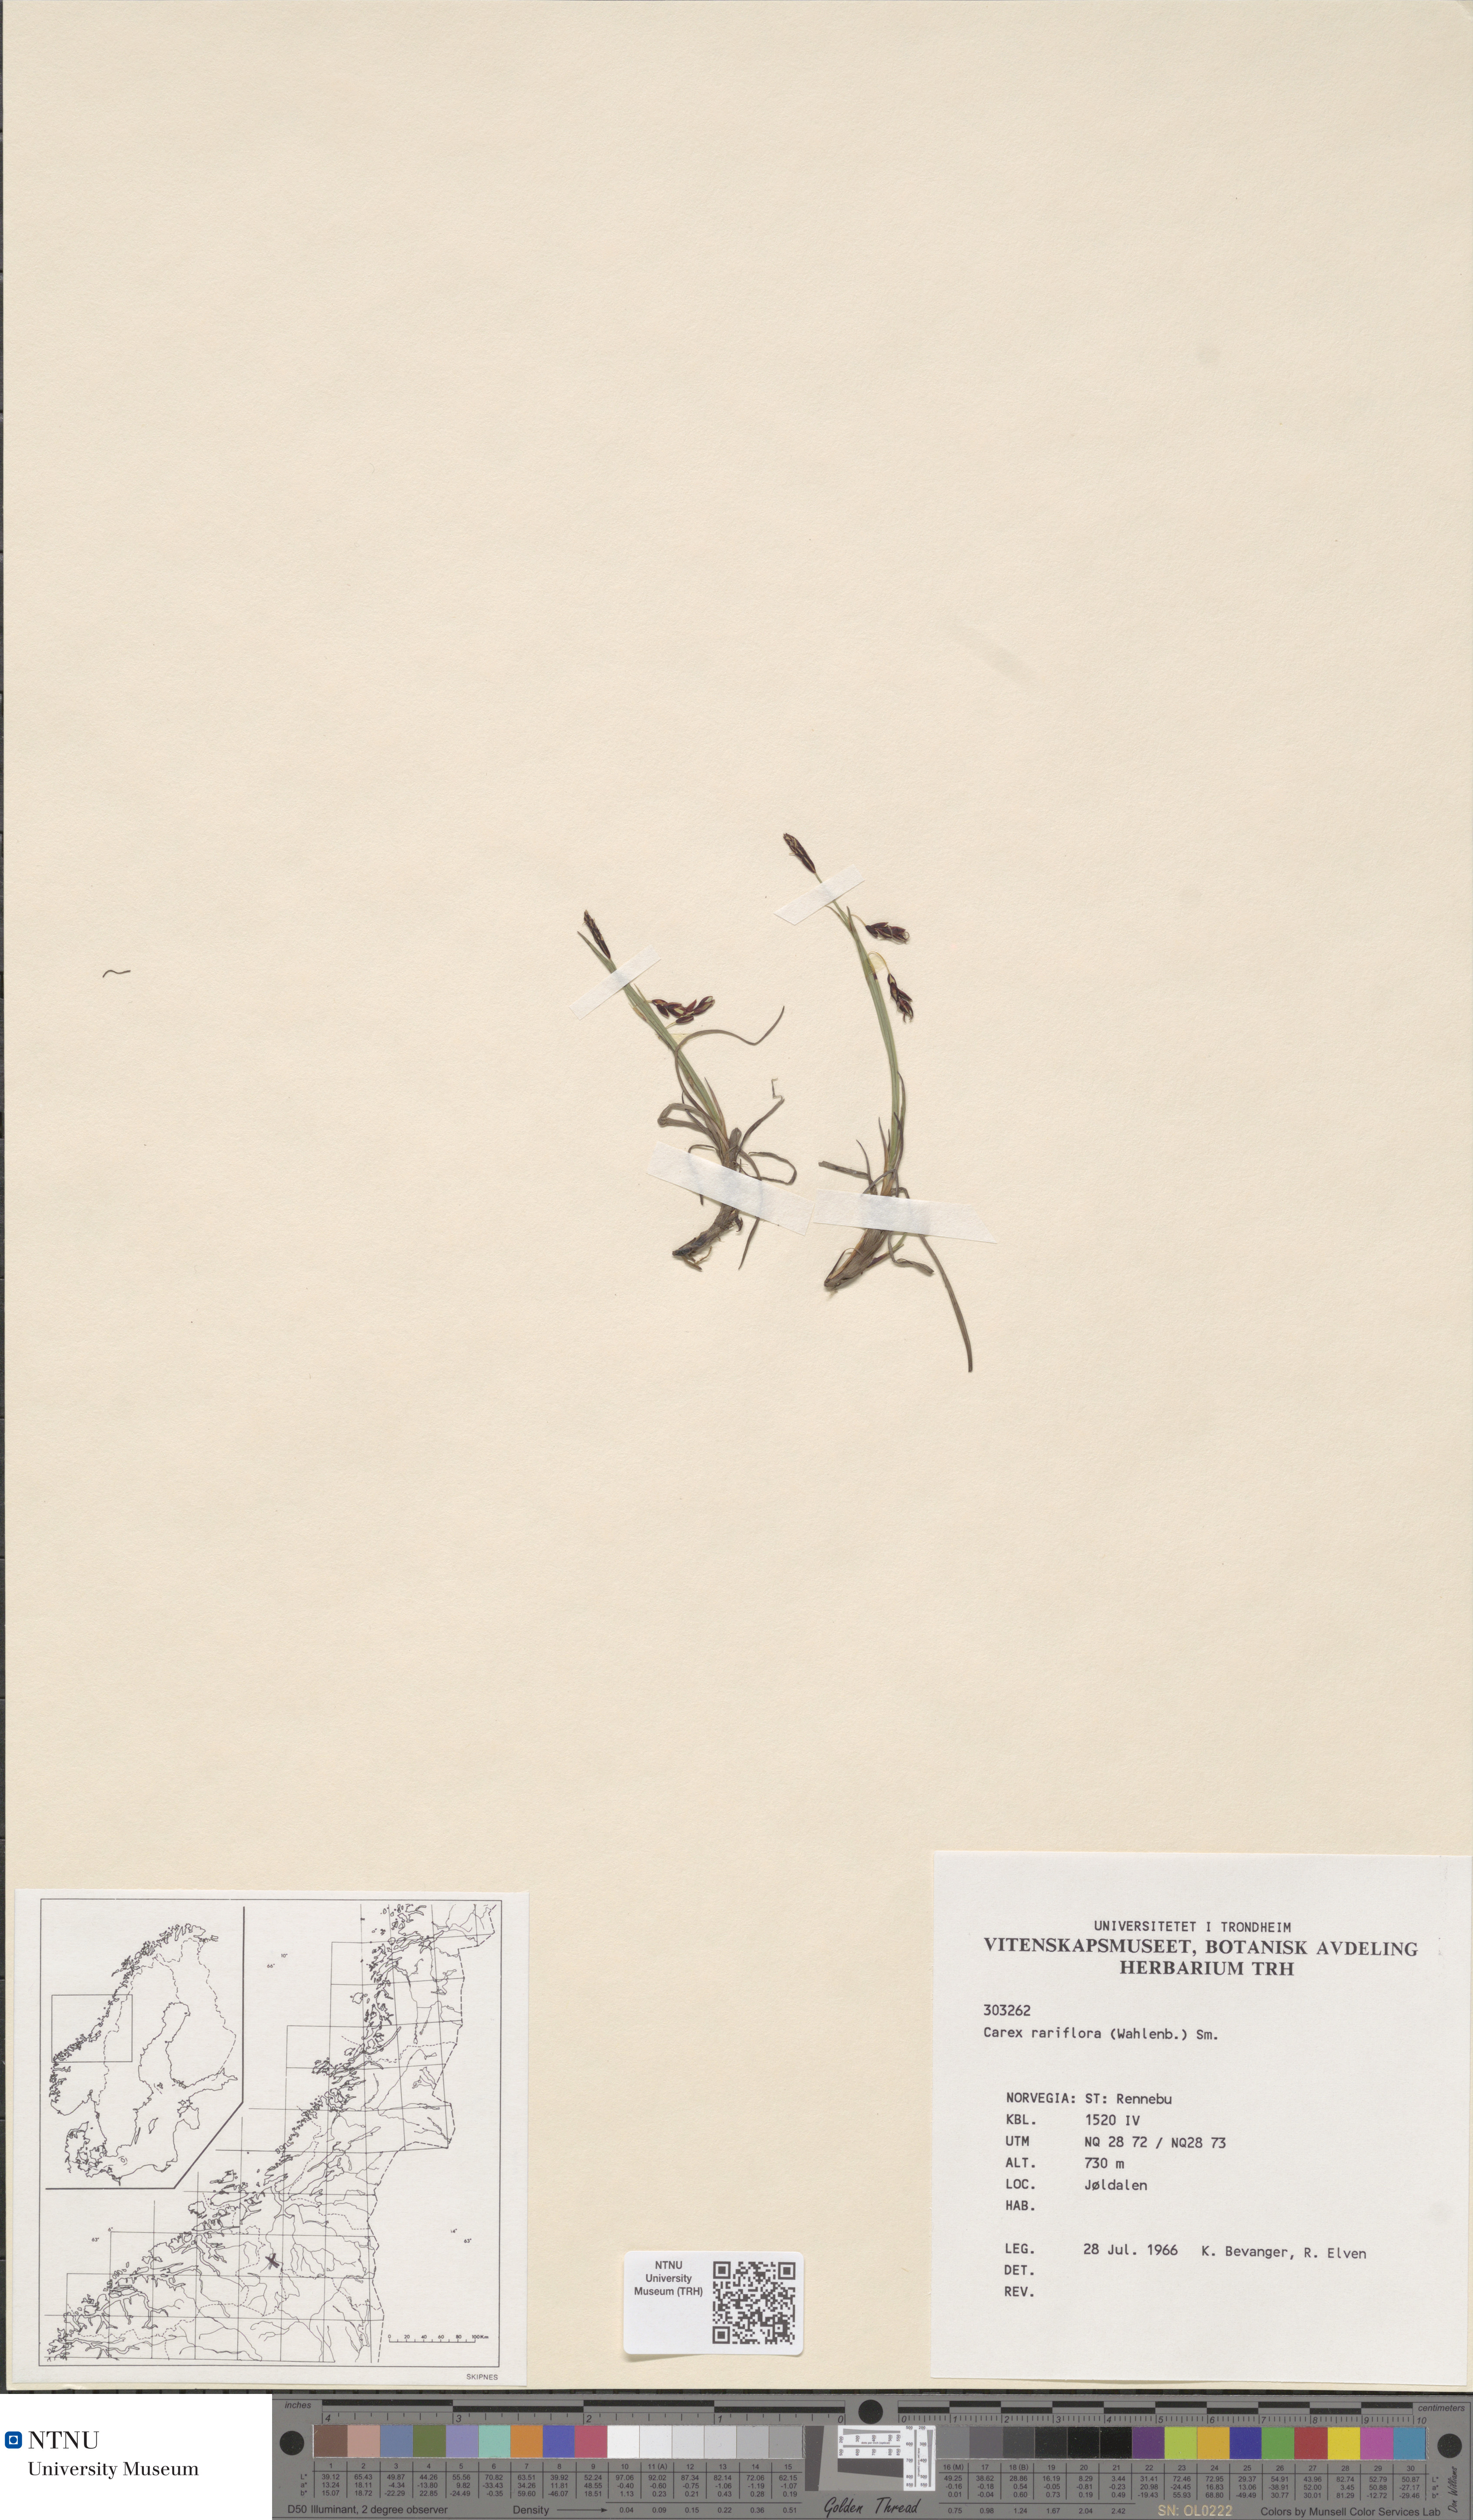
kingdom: Plantae
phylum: Tracheophyta
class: Liliopsida
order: Poales
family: Cyperaceae
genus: Carex
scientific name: Carex rariflora
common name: Loose-flowered alpine sedge
